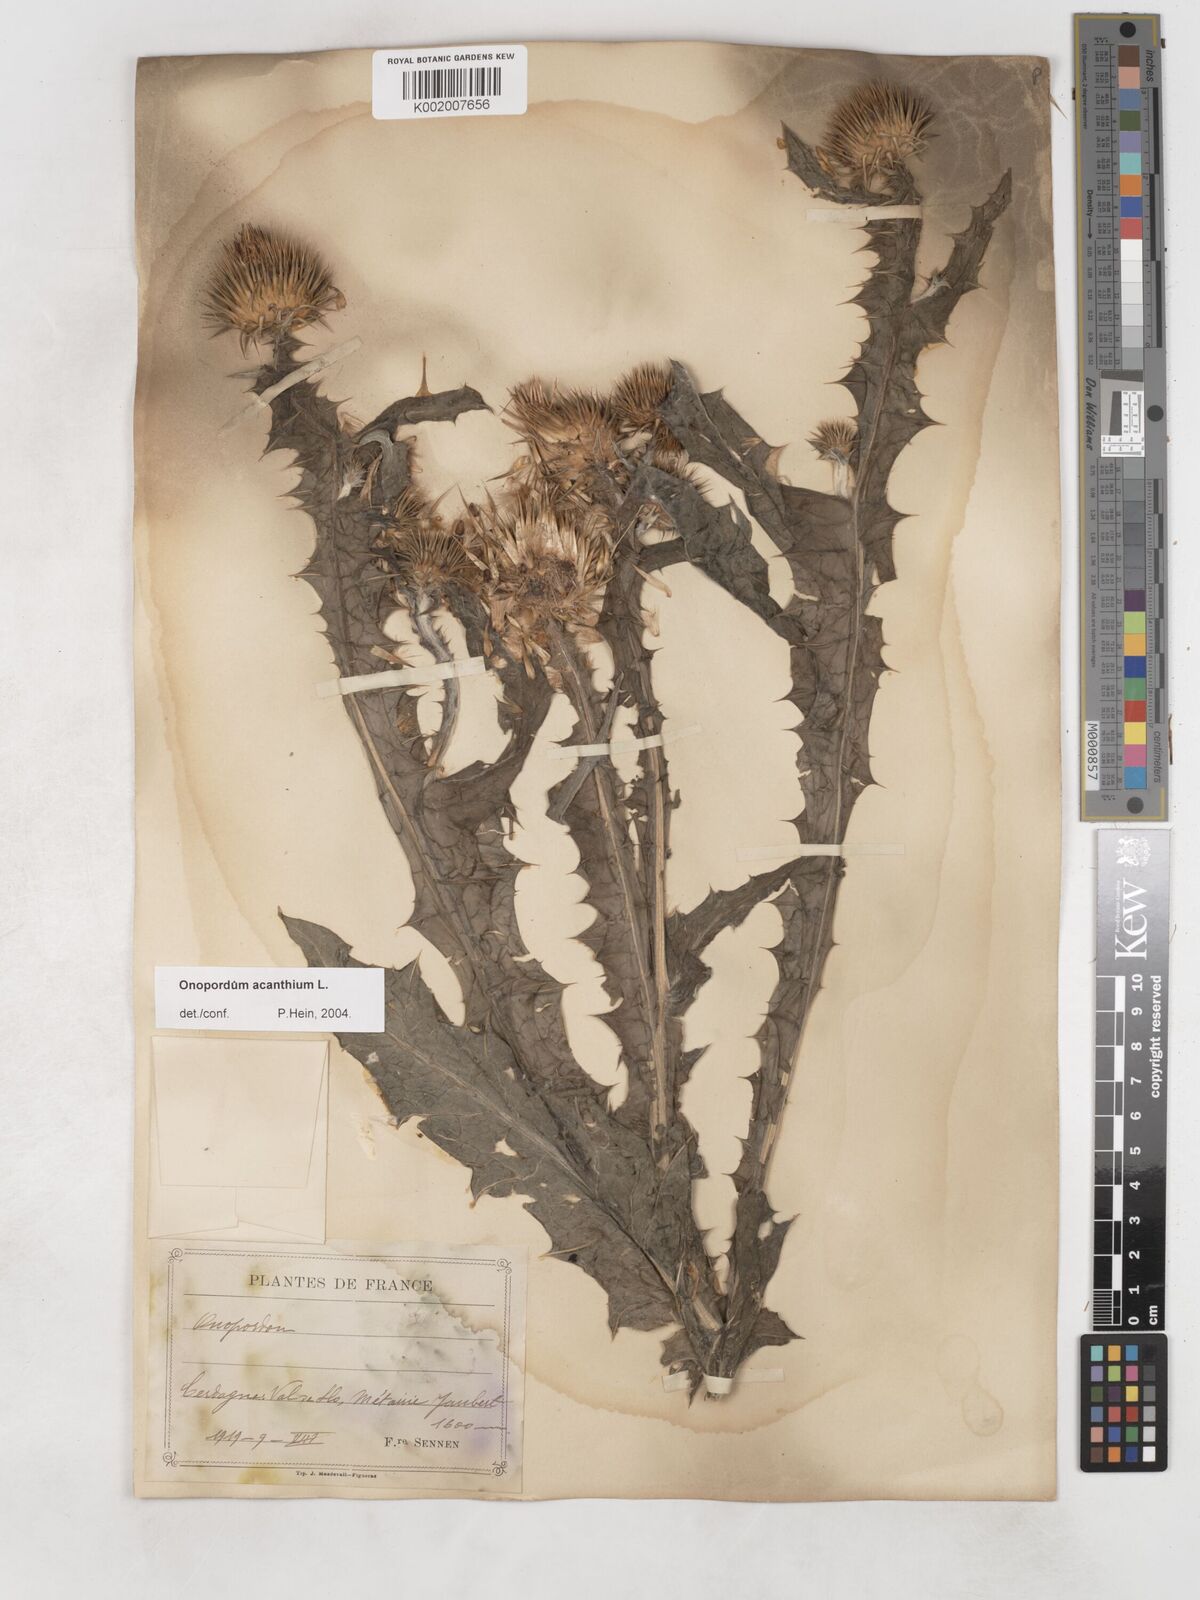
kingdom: Plantae
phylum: Tracheophyta
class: Magnoliopsida
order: Asterales
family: Asteraceae
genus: Onopordum
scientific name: Onopordum acanthium
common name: Scotch thistle
